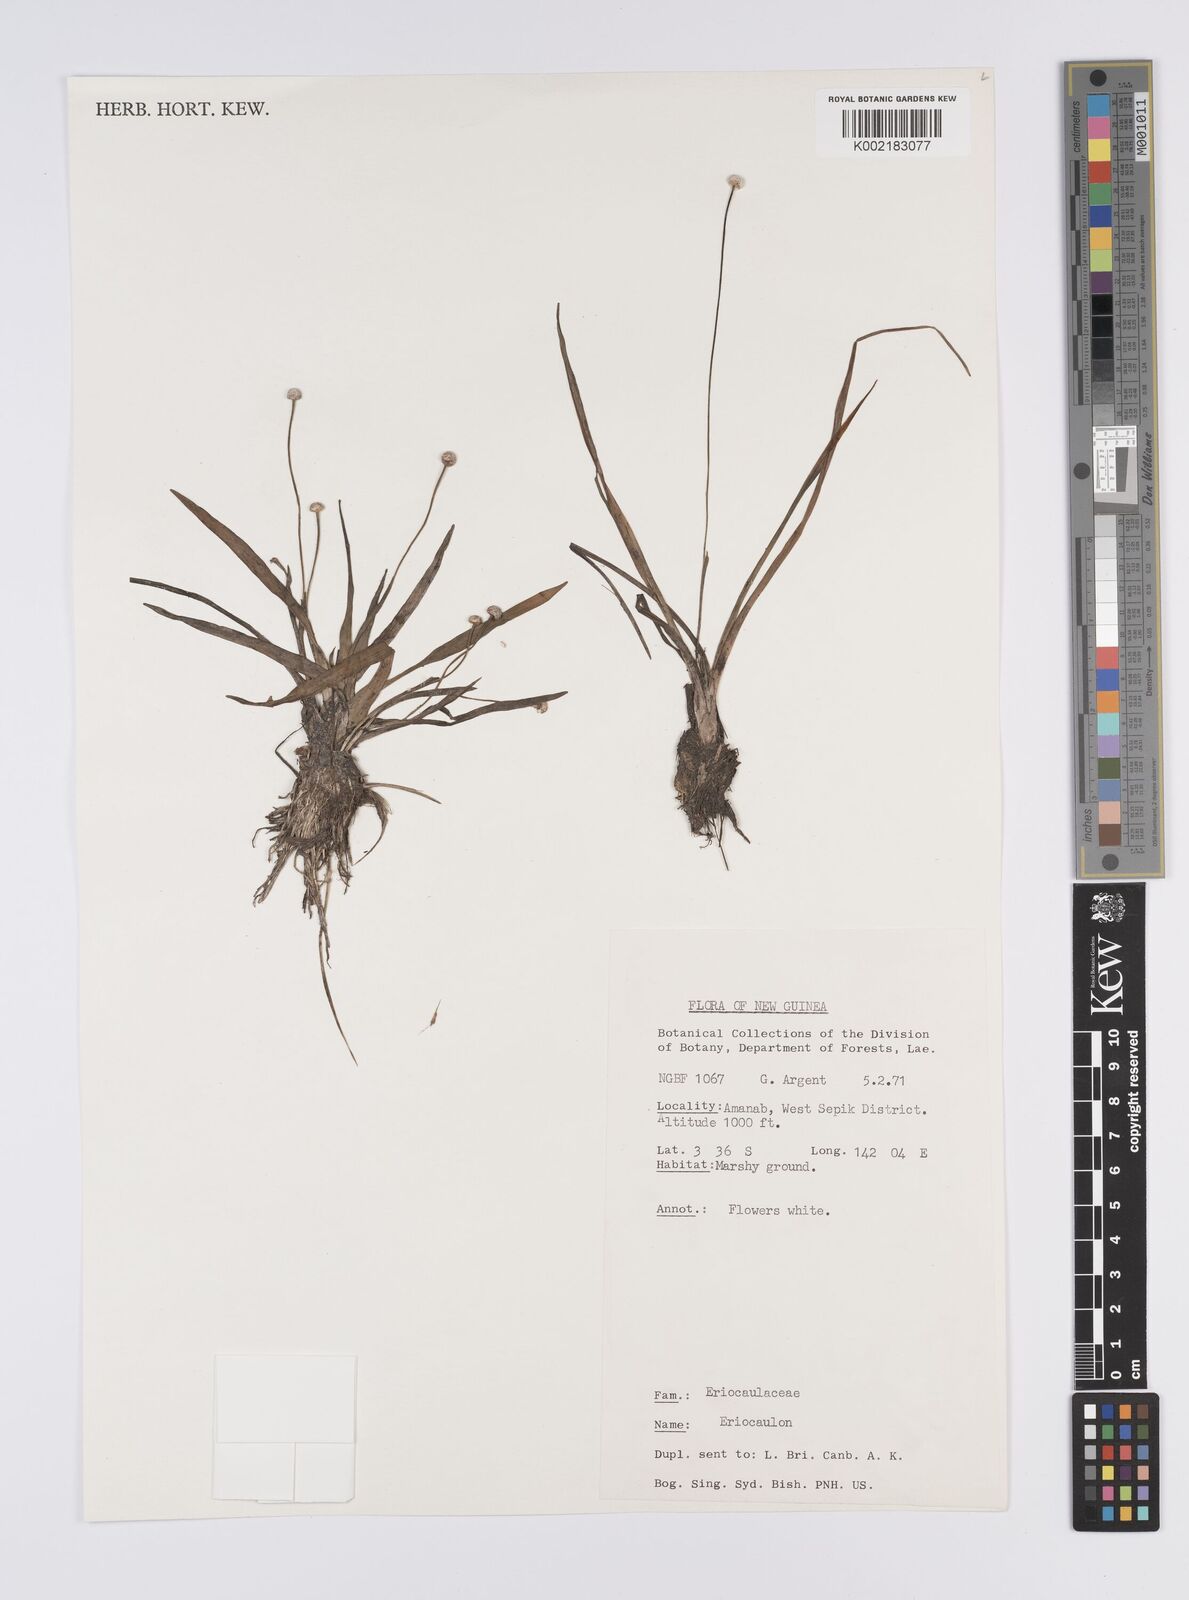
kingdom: Plantae
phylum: Tracheophyta
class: Liliopsida
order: Poales
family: Eriocaulaceae
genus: Eriocaulon
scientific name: Eriocaulon
